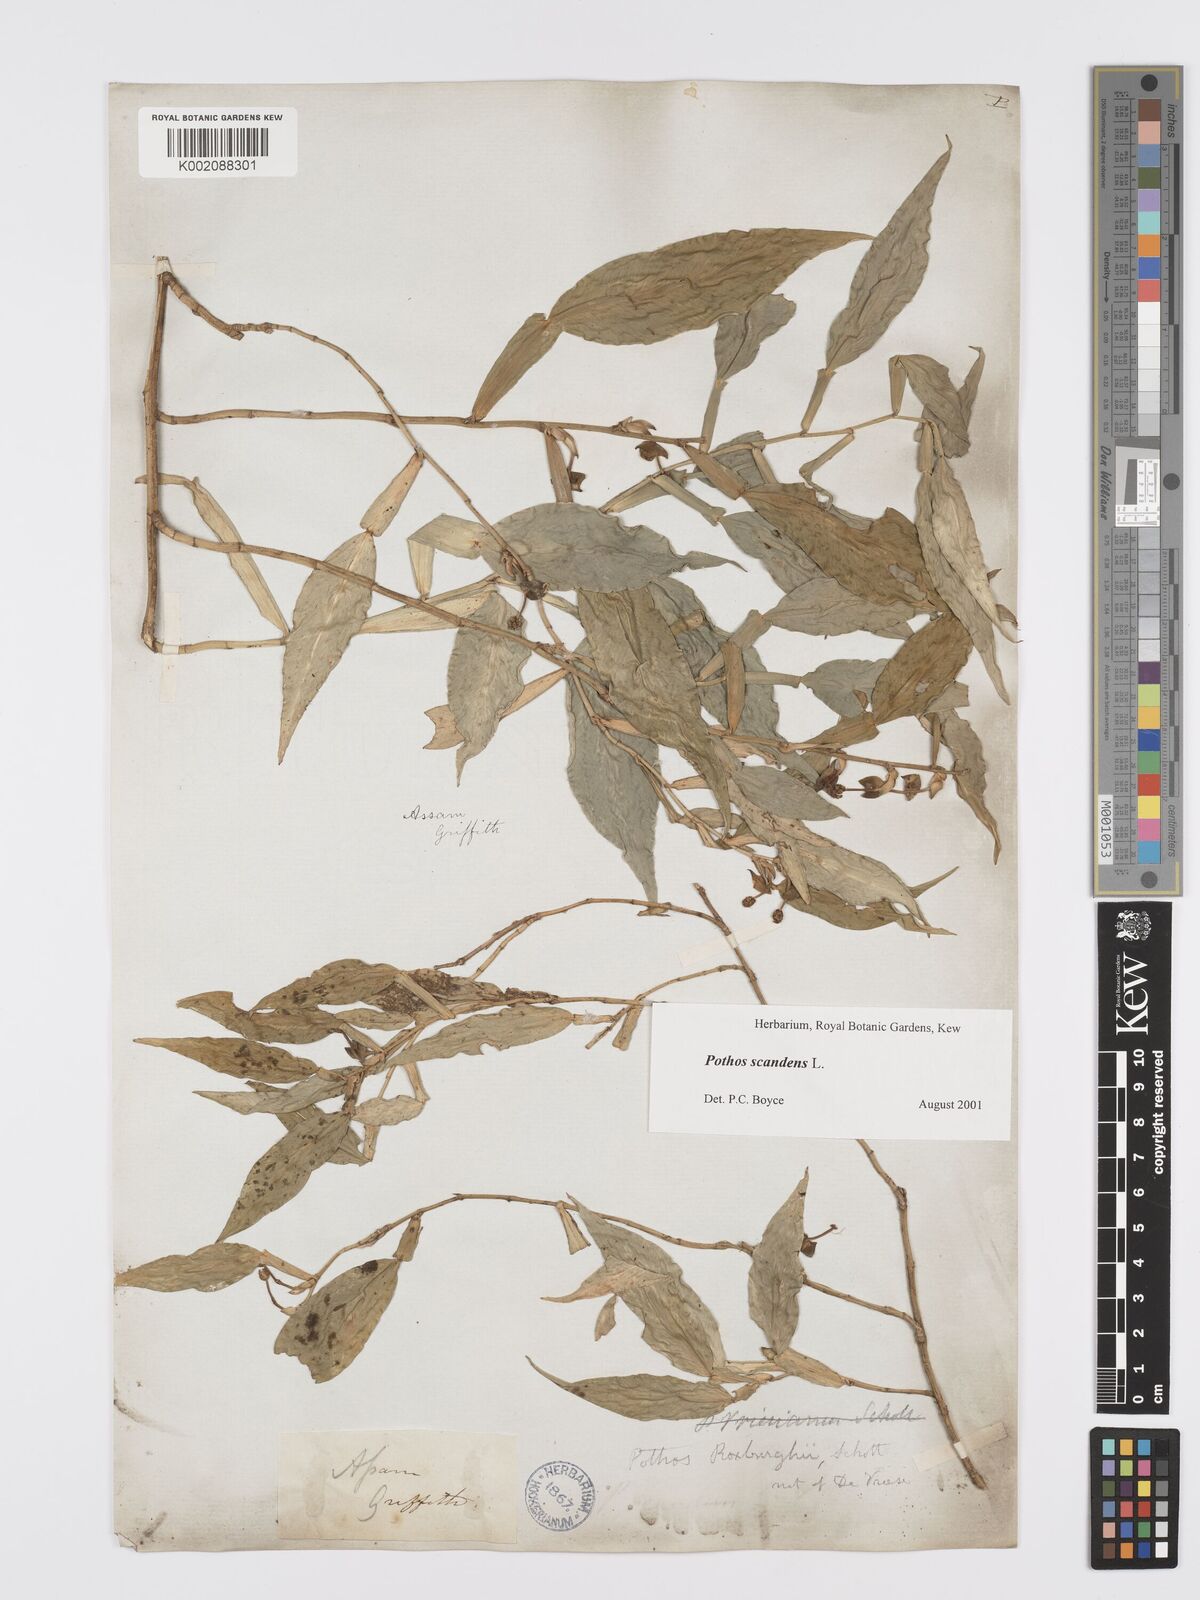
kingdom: Plantae
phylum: Tracheophyta
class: Liliopsida
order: Alismatales
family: Araceae
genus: Pothos
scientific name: Pothos scandens
